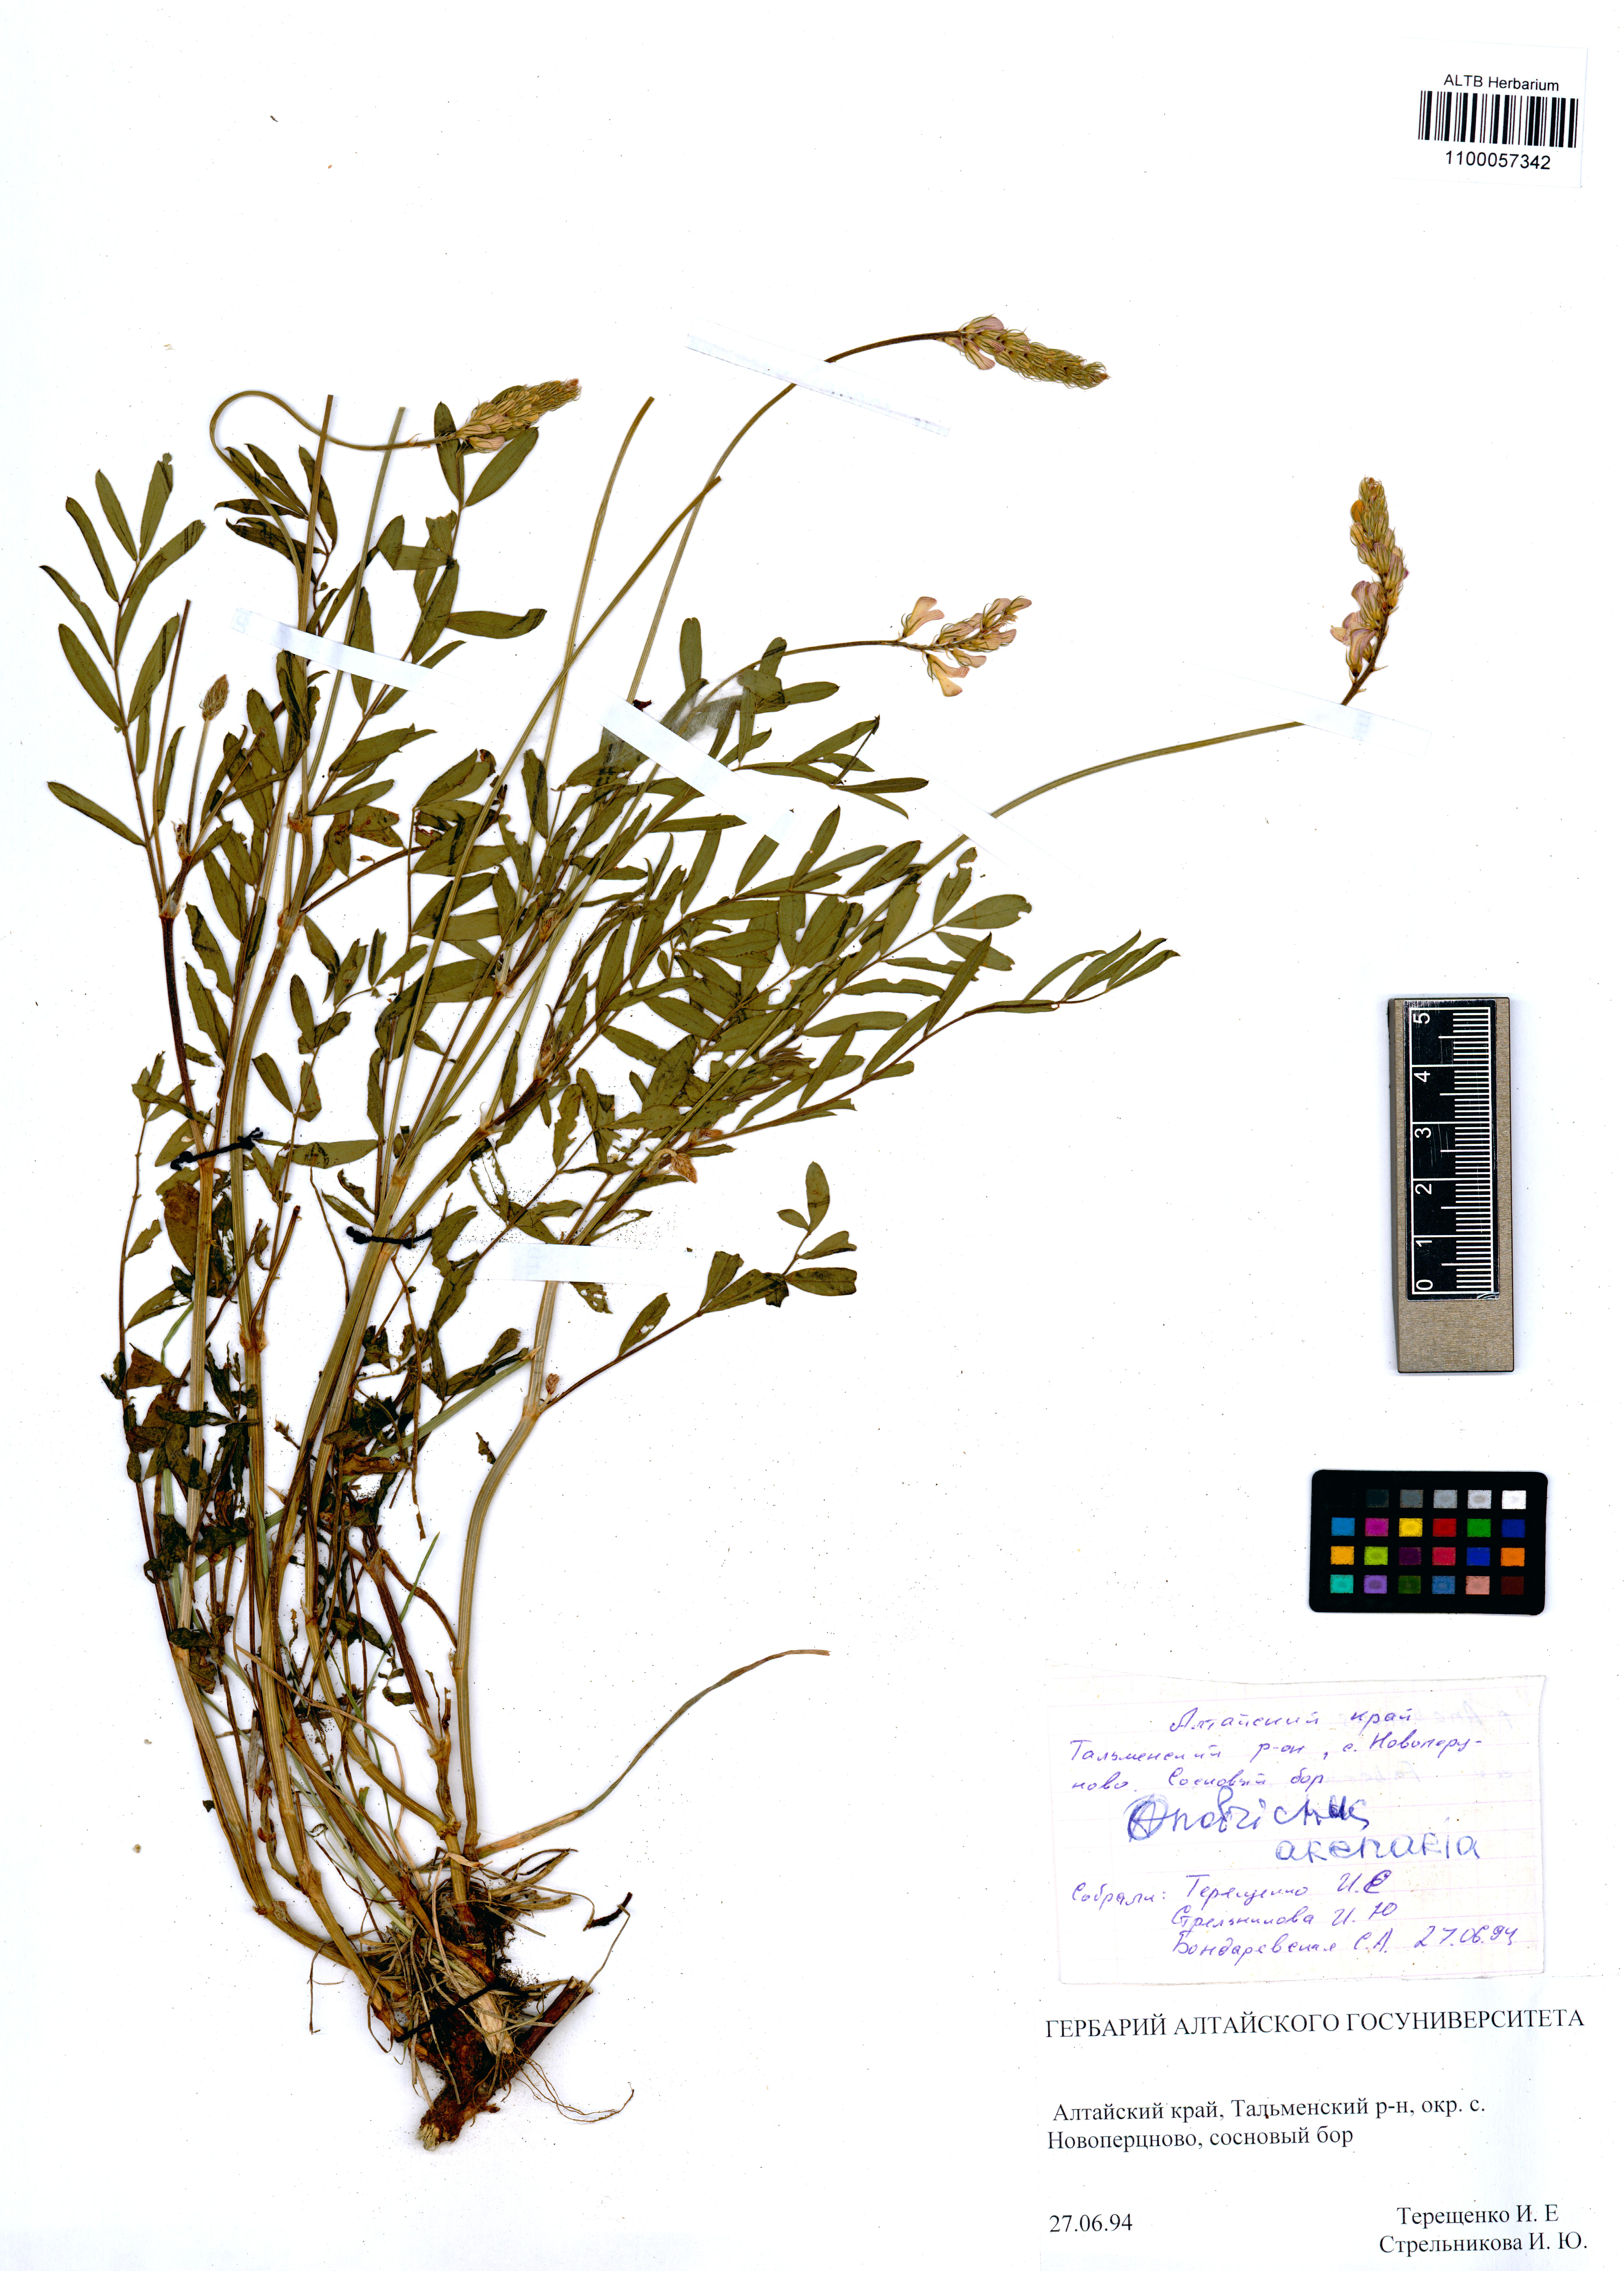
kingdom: Plantae
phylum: Tracheophyta
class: Magnoliopsida
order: Fabales
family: Fabaceae
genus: Onobrychis
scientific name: Onobrychis arenaria
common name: Sand esparcet
